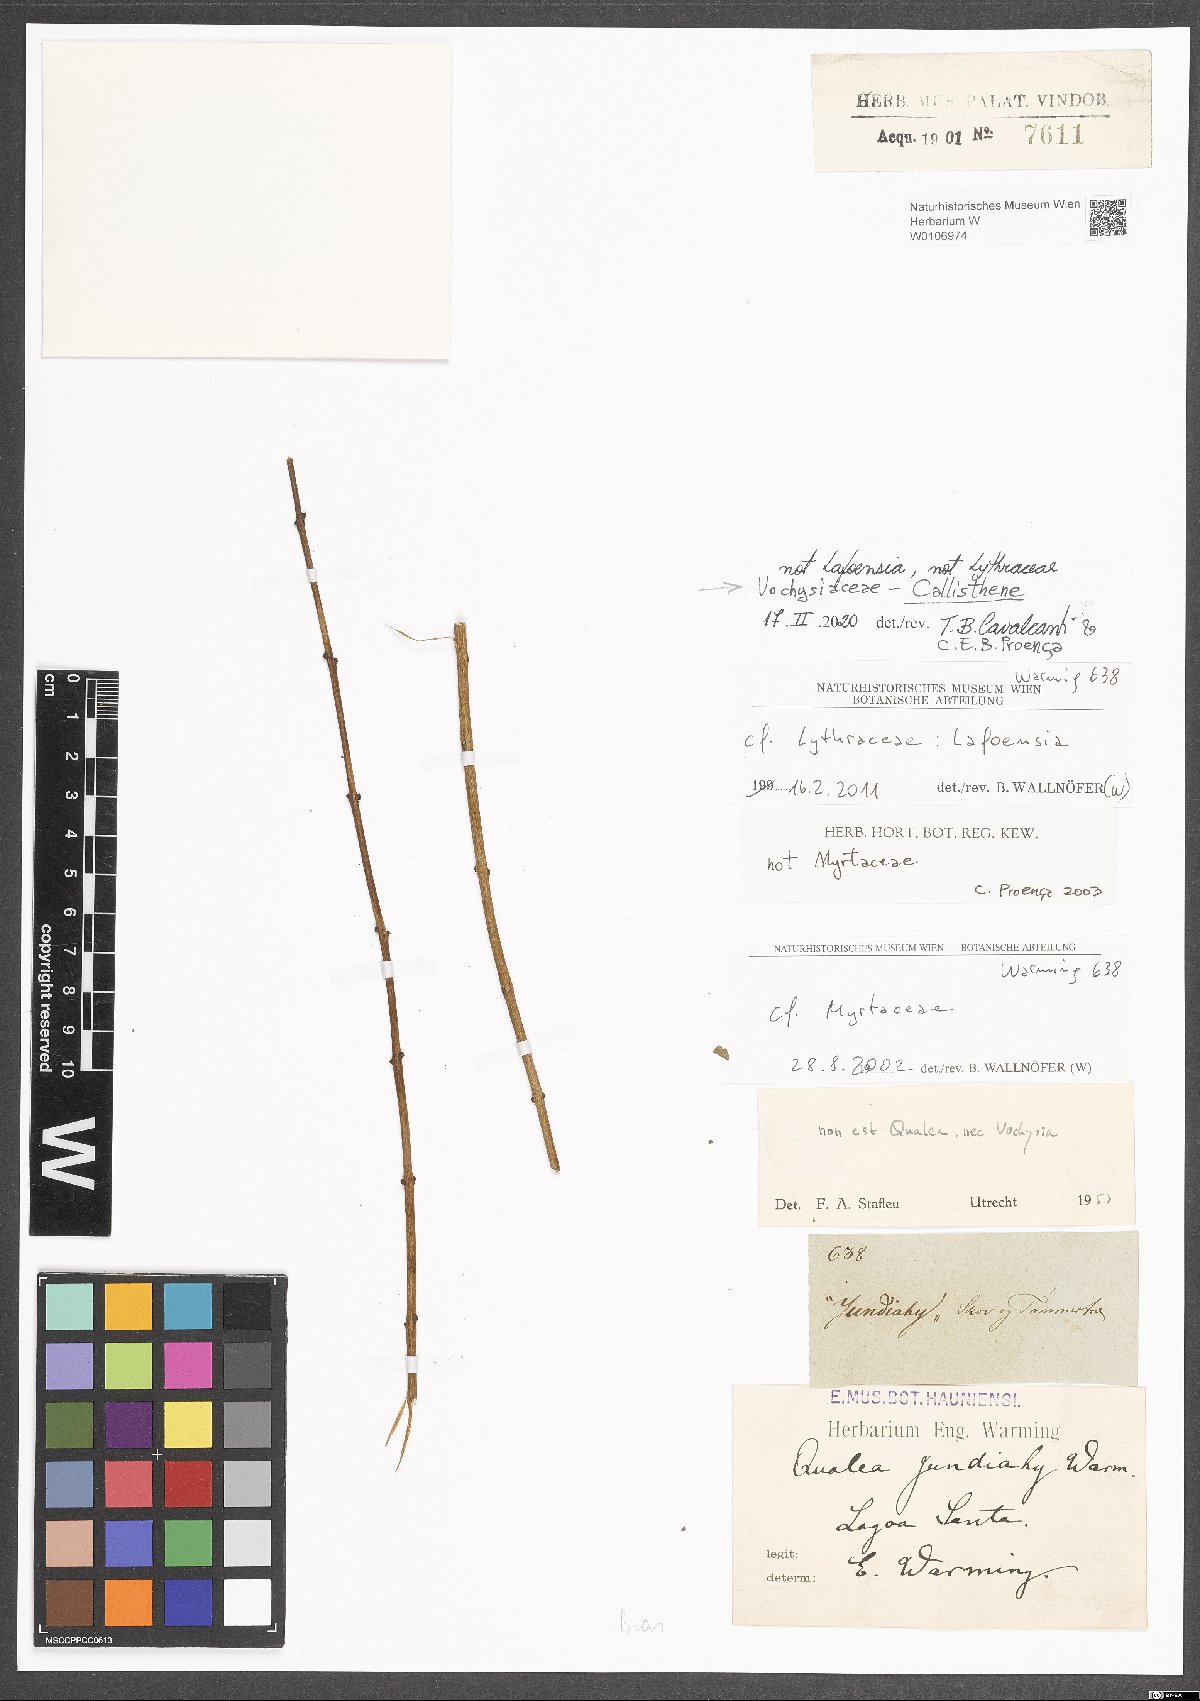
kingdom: Plantae
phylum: Tracheophyta
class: Magnoliopsida
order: Myrtales
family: Vochysiaceae
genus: Callisthene
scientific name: Callisthene
